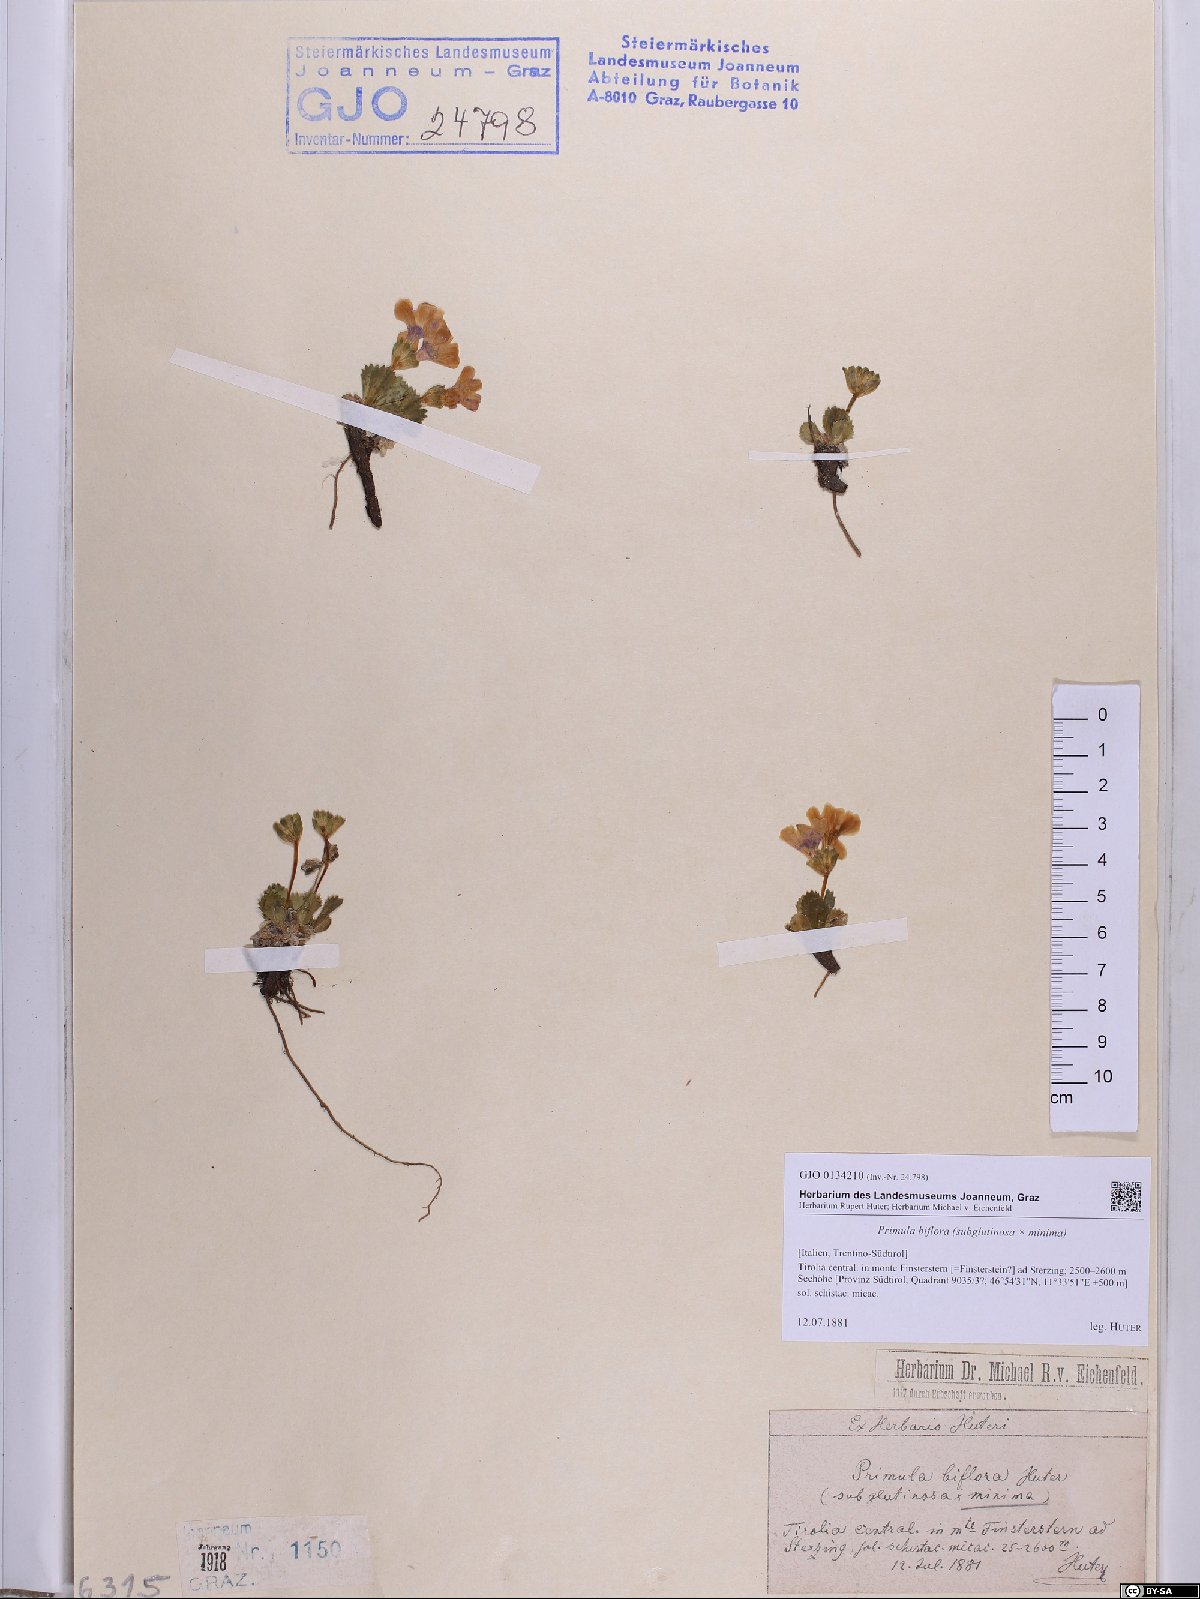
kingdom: Plantae
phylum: Tracheophyta
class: Magnoliopsida
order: Ericales
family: Primulaceae
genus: Primula
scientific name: Primula floerkeana
